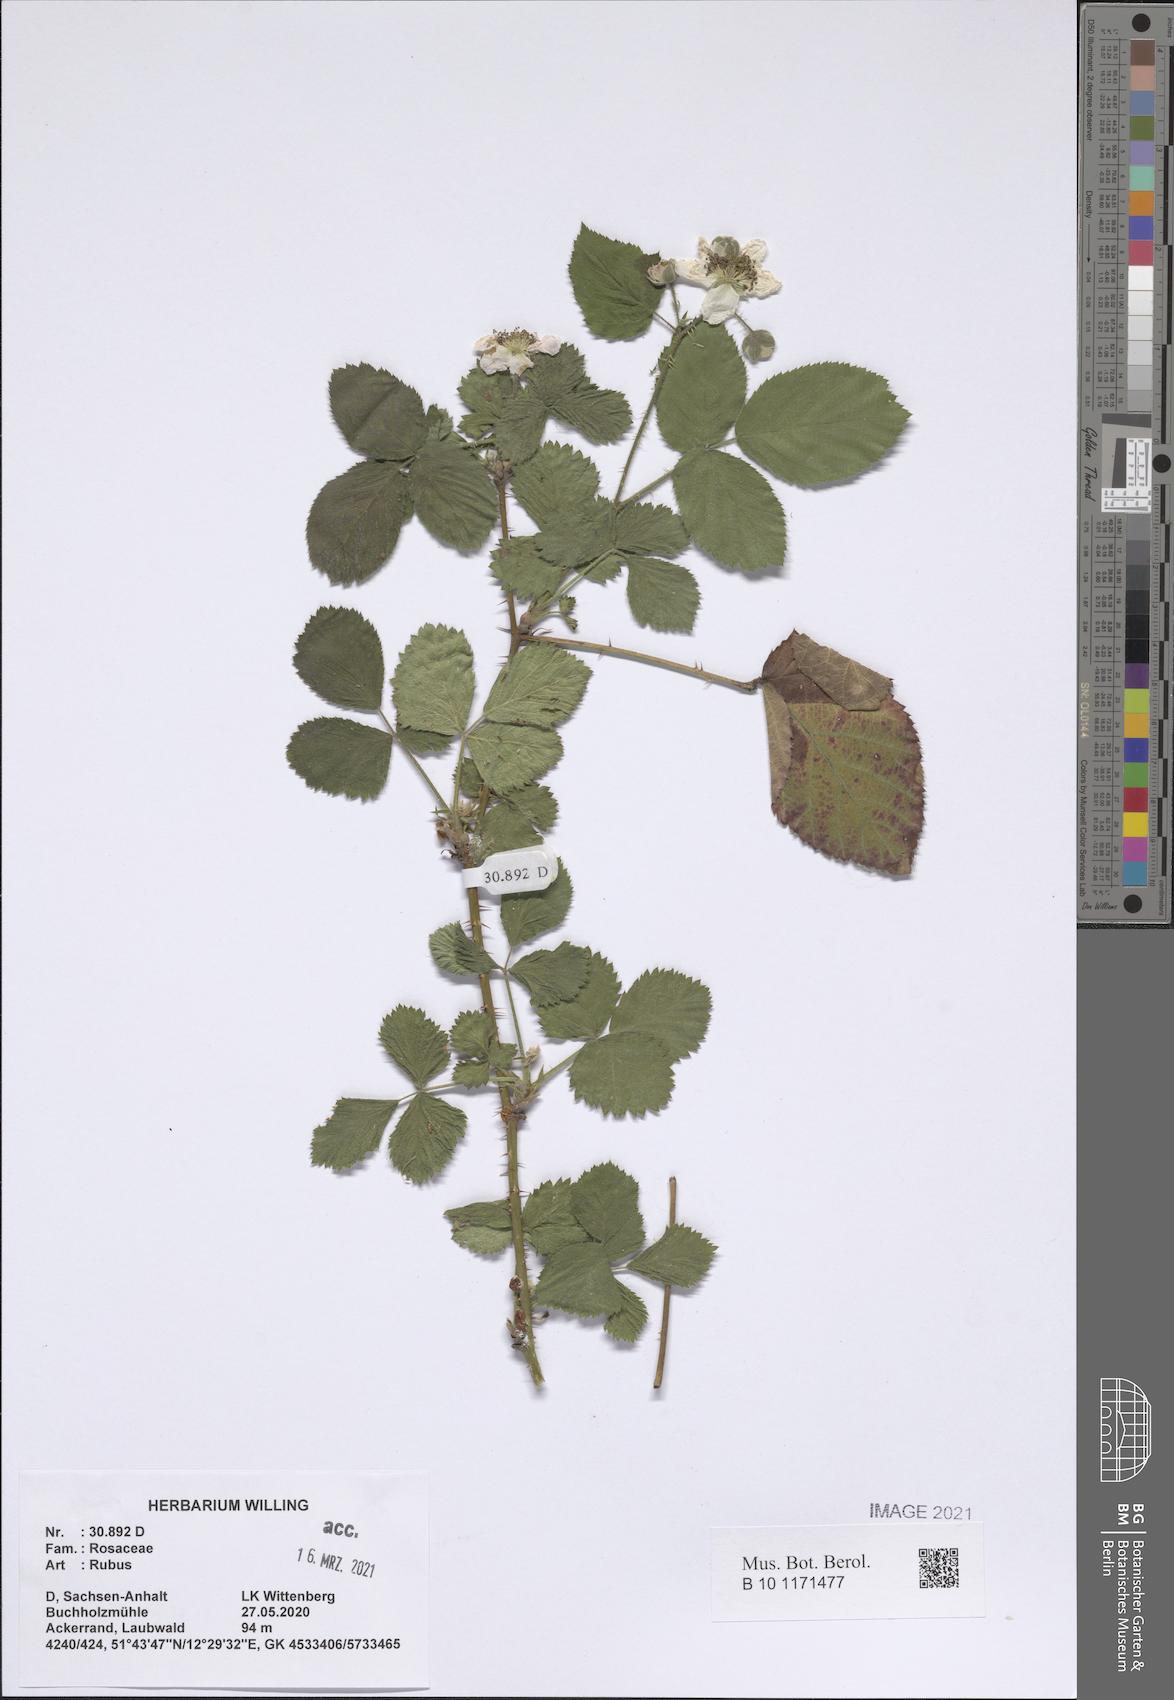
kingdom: Plantae
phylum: Tracheophyta
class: Magnoliopsida
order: Rosales
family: Rosaceae
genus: Rubus
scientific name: Rubus
